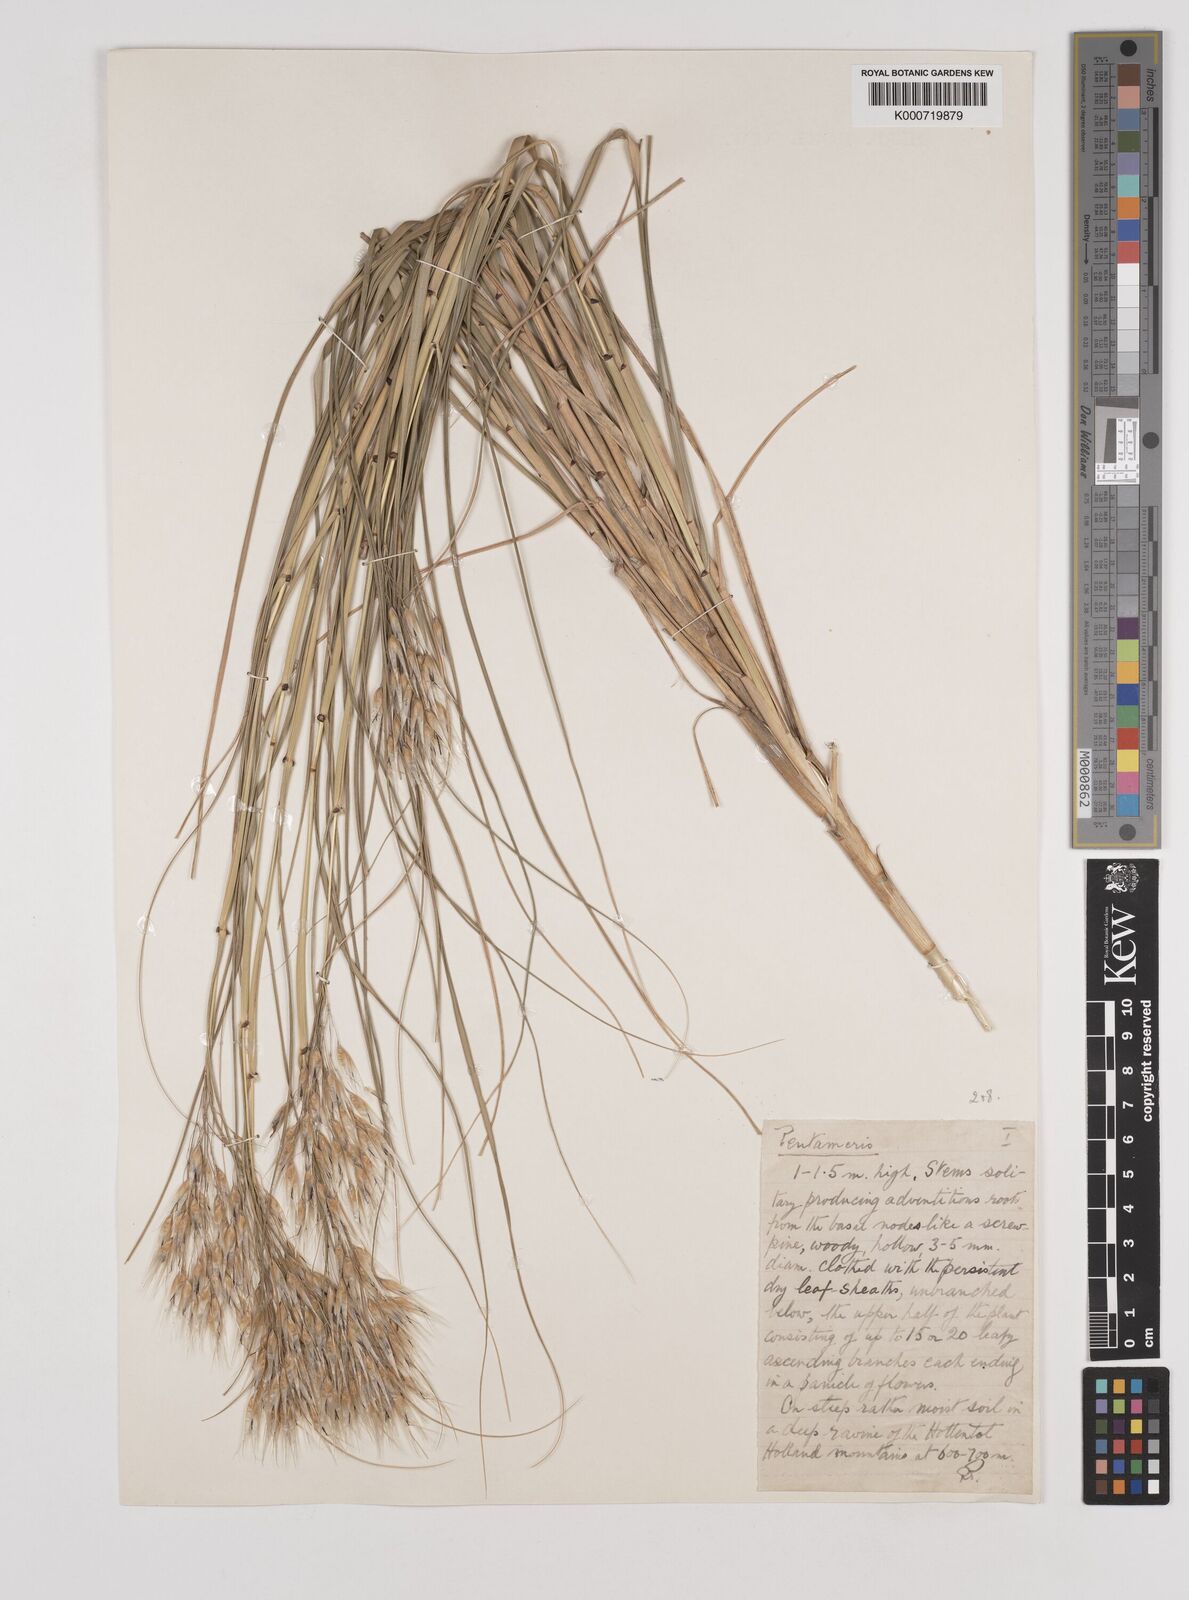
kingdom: Plantae
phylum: Tracheophyta
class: Liliopsida
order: Poales
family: Poaceae
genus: Pentameris
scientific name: Pentameris thuarii
